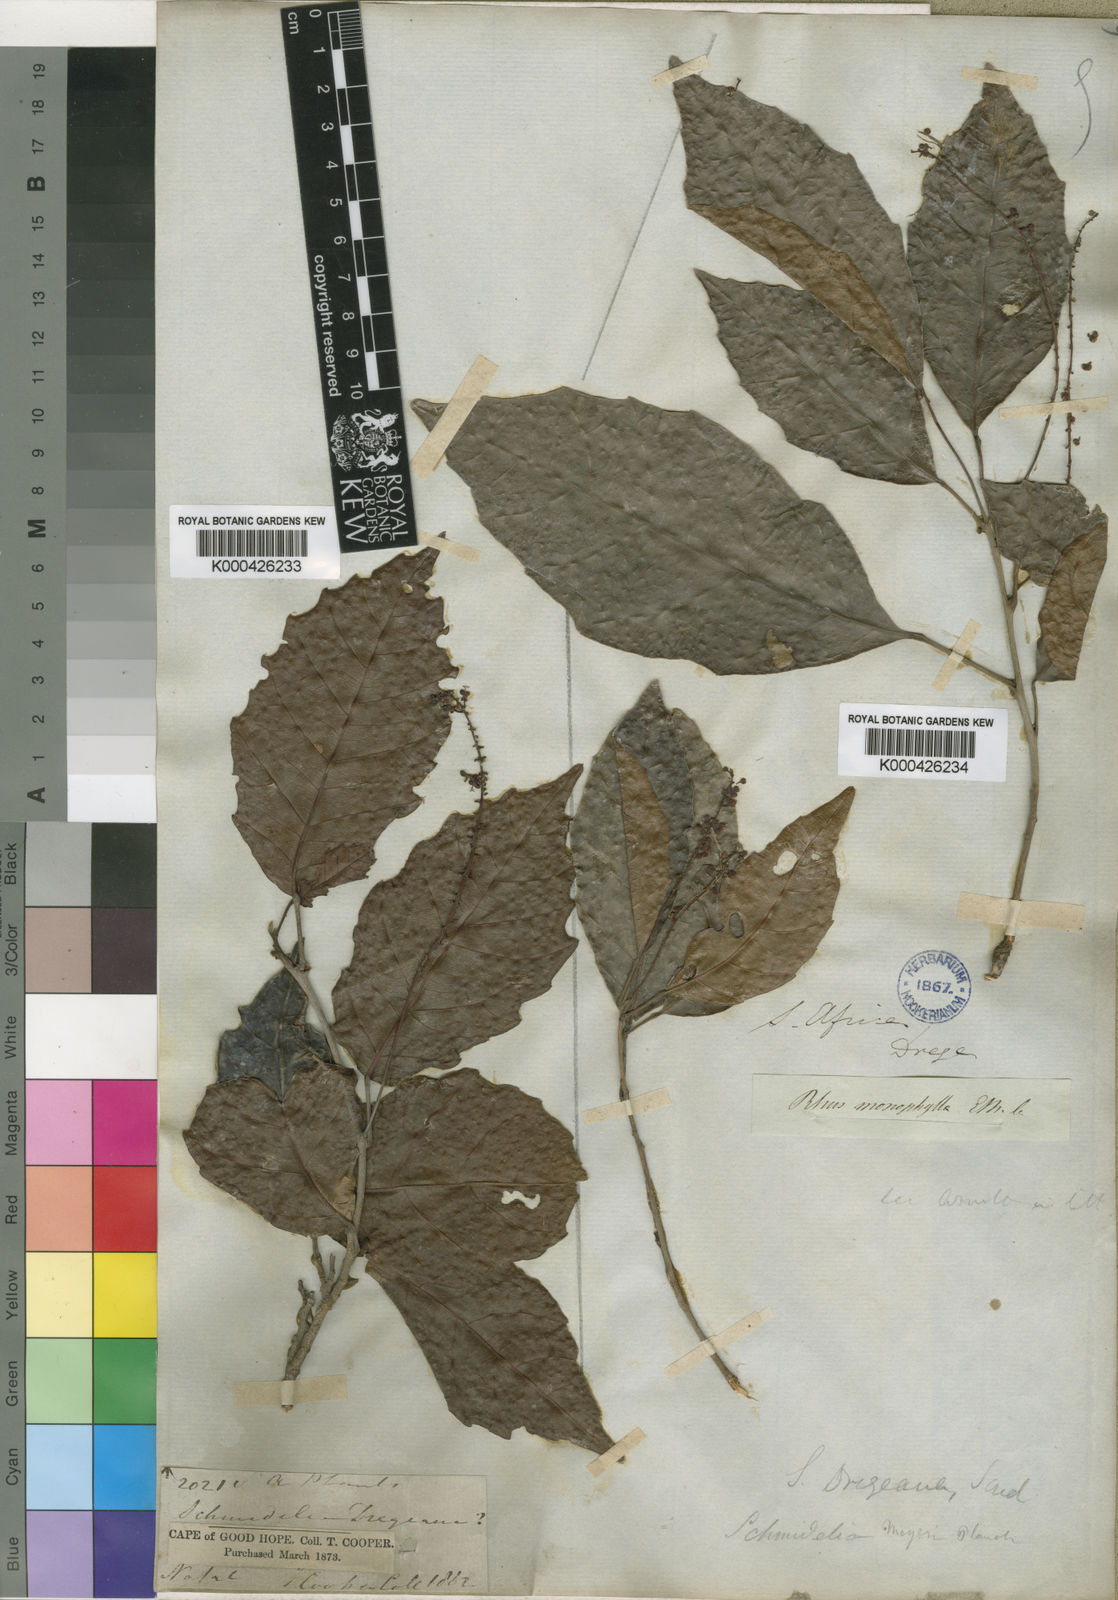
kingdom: Plantae
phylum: Tracheophyta
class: Magnoliopsida
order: Sapindales
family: Sapindaceae
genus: Allophylus
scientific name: Allophylus dregeanus
